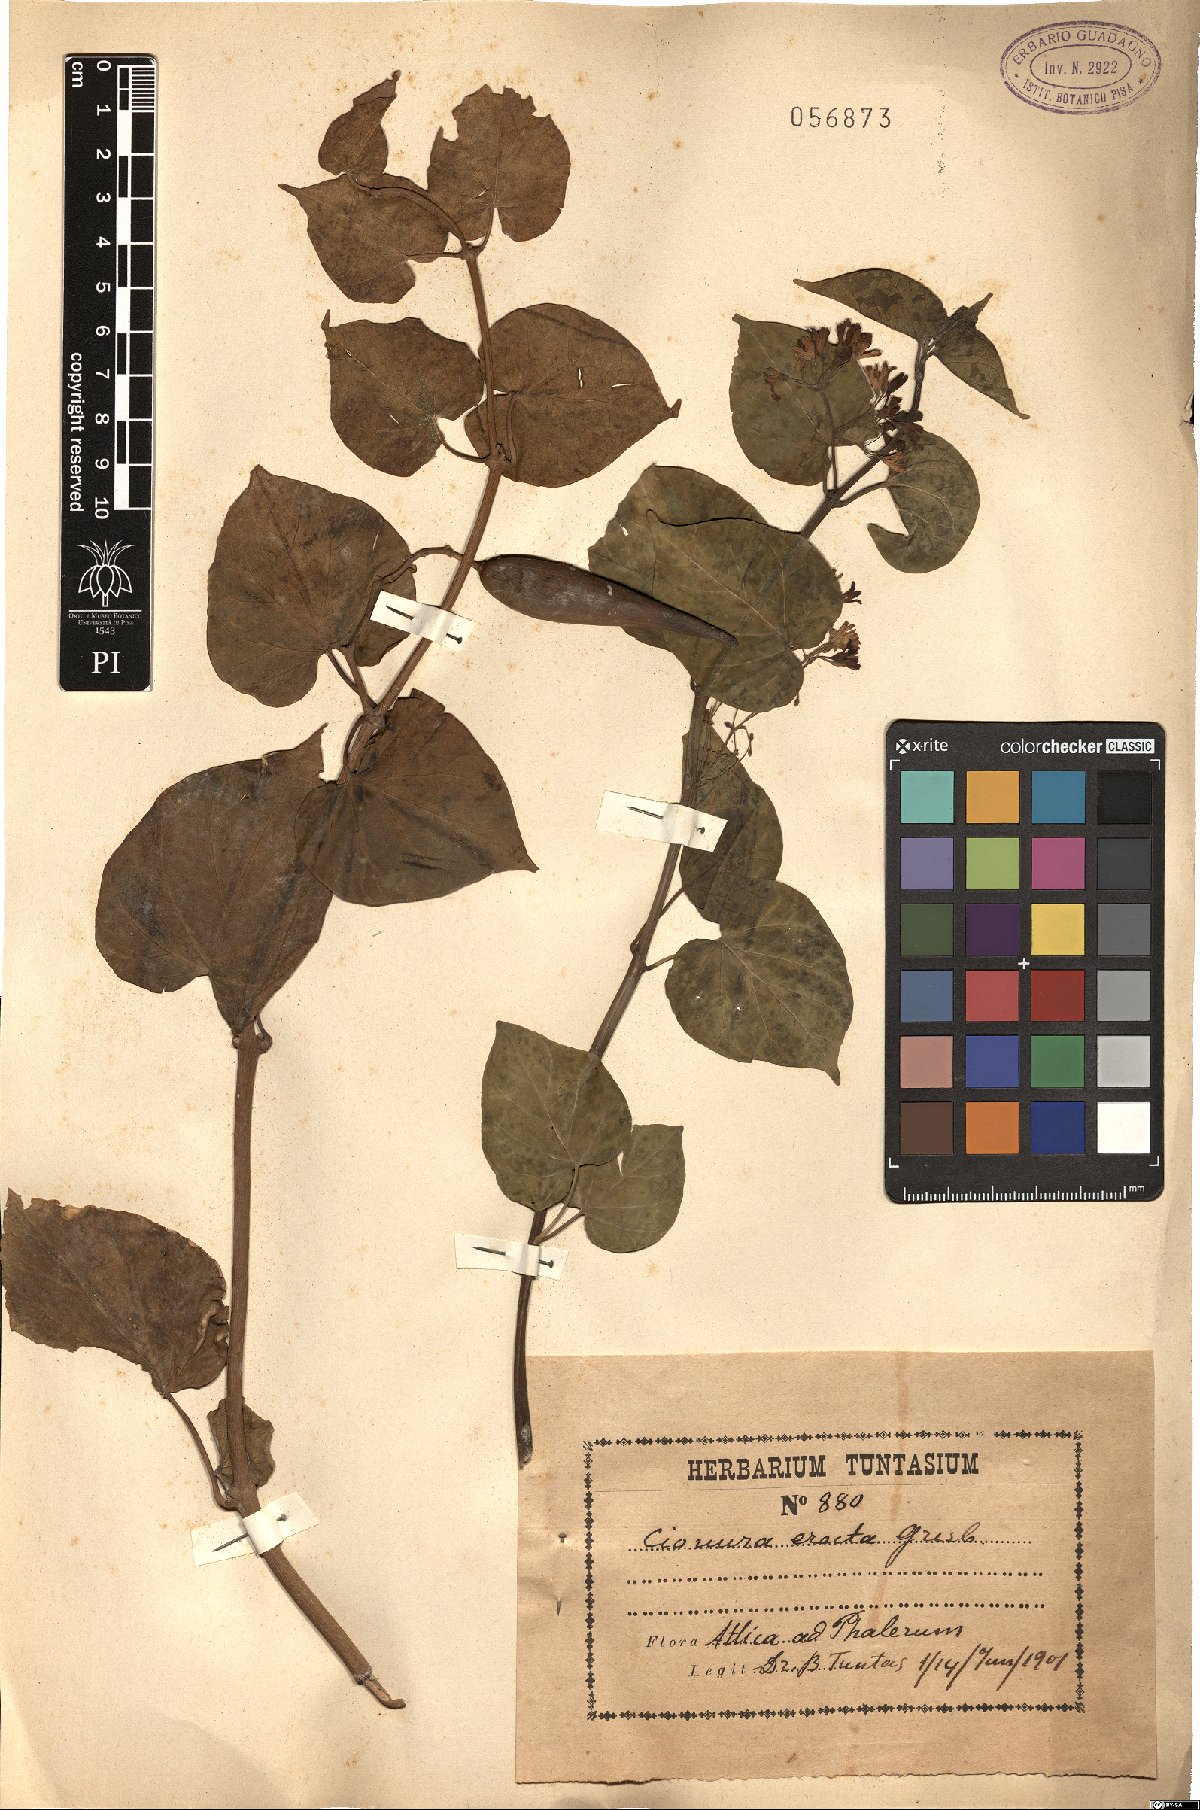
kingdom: Plantae
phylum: Tracheophyta
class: Magnoliopsida
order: Gentianales
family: Apocynaceae
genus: Cionura
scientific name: Cionura erecta
